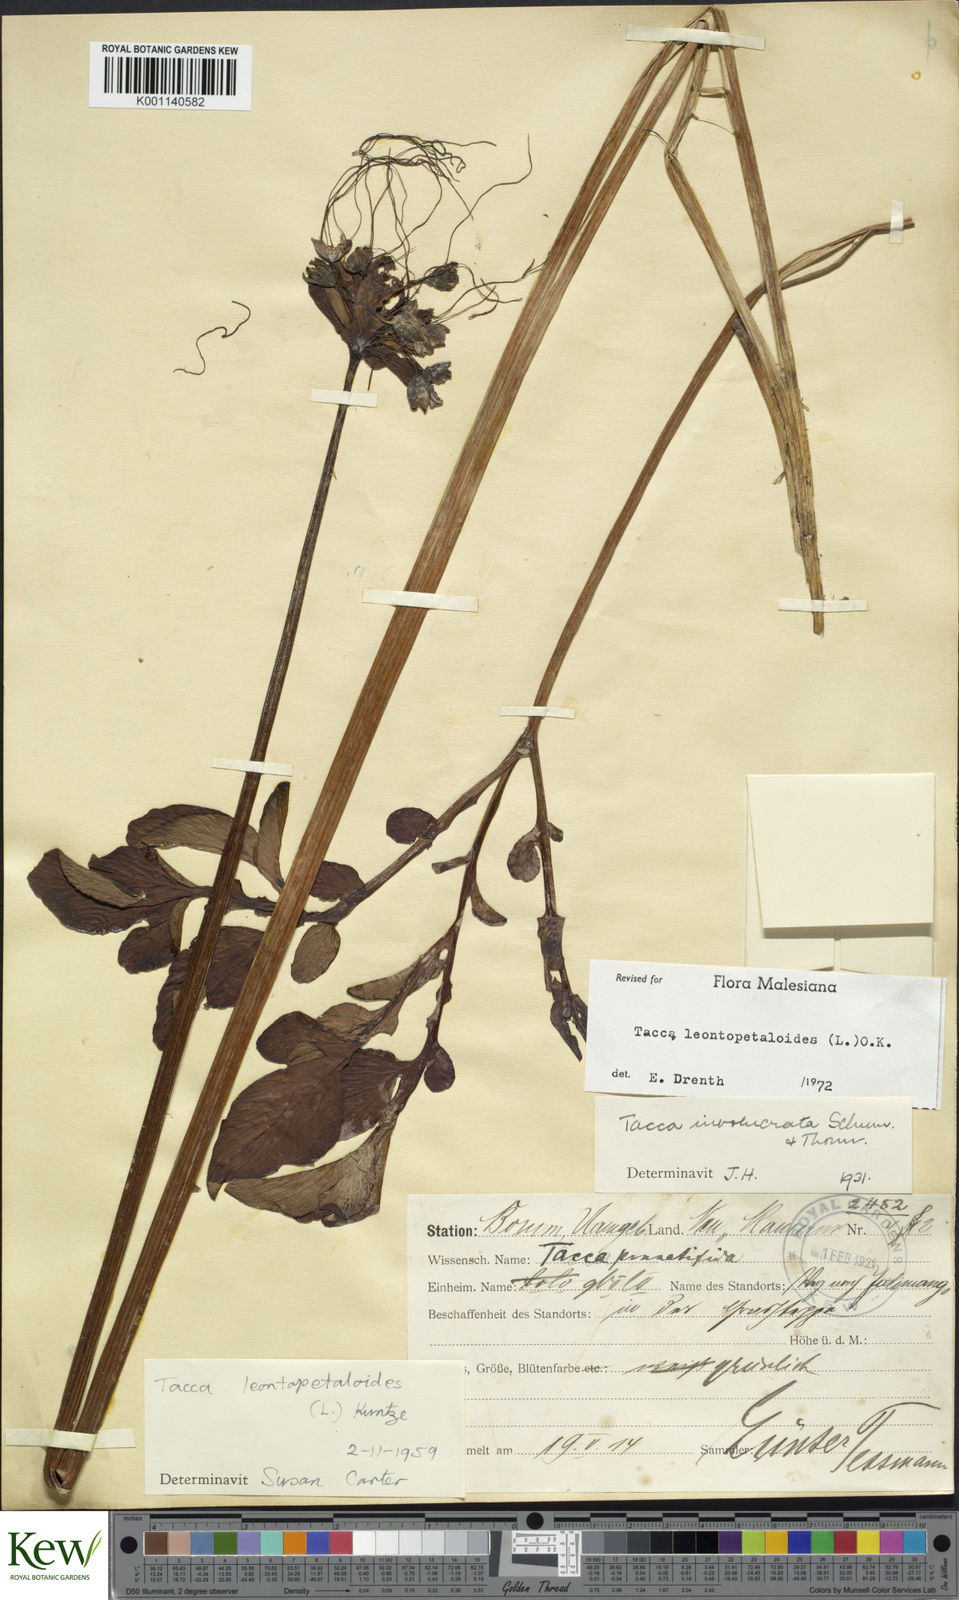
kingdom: Plantae
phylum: Tracheophyta
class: Liliopsida
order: Dioscoreales
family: Dioscoreaceae
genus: Tacca
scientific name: Tacca leontopetaloides
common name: Arrowroot
